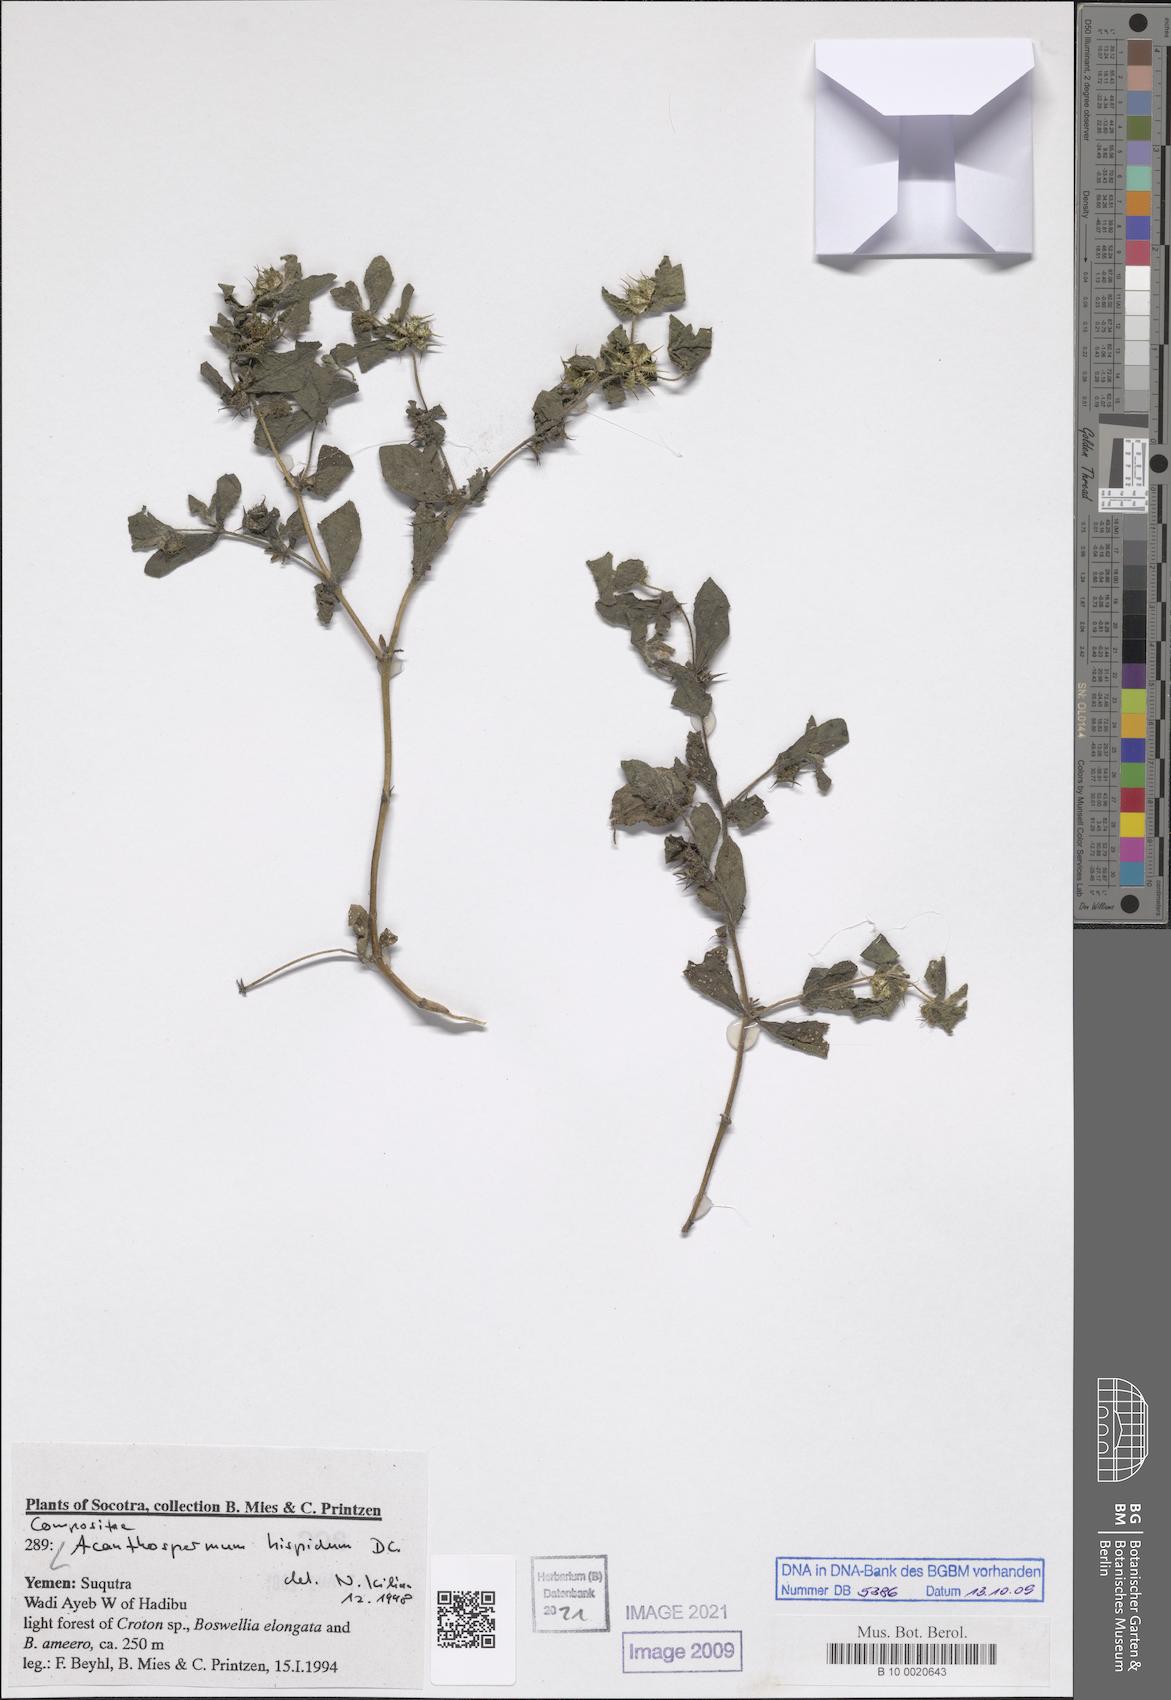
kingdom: Plantae
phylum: Tracheophyta
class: Magnoliopsida
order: Asterales
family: Asteraceae
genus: Acanthospermum
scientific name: Acanthospermum hispidum
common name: Hispid starbur
